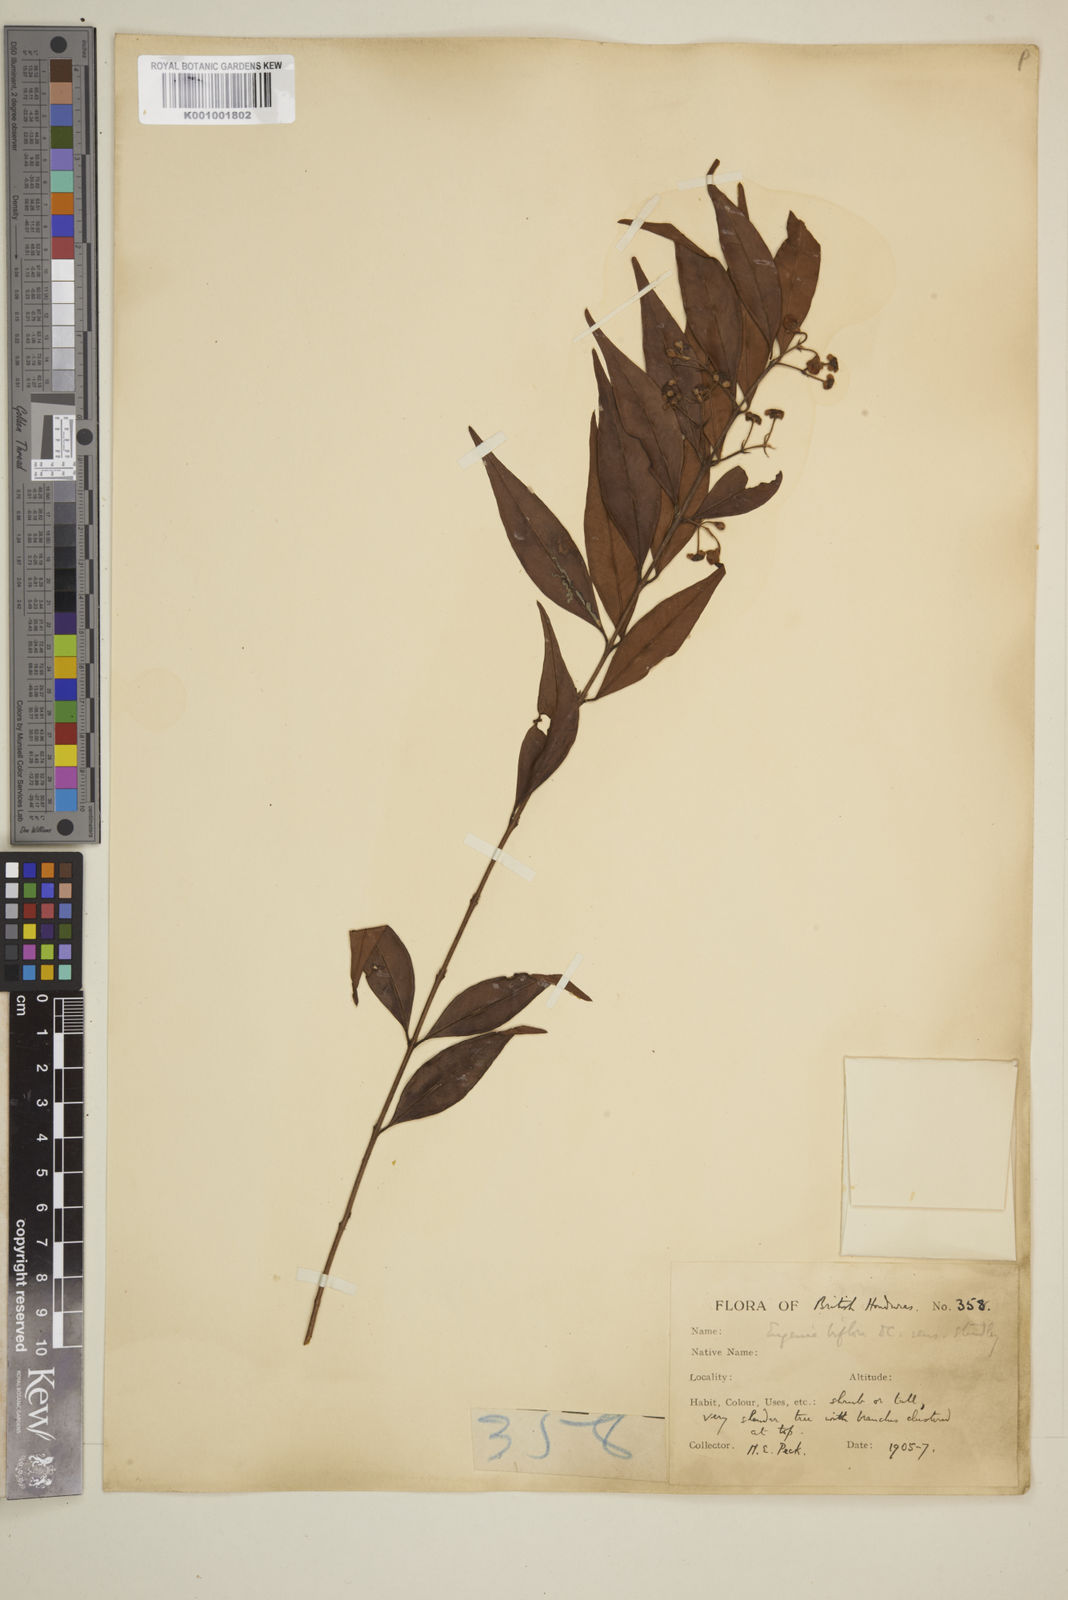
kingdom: Plantae
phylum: Tracheophyta
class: Magnoliopsida
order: Myrtales
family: Myrtaceae
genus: Eugenia
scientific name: Eugenia biflora
